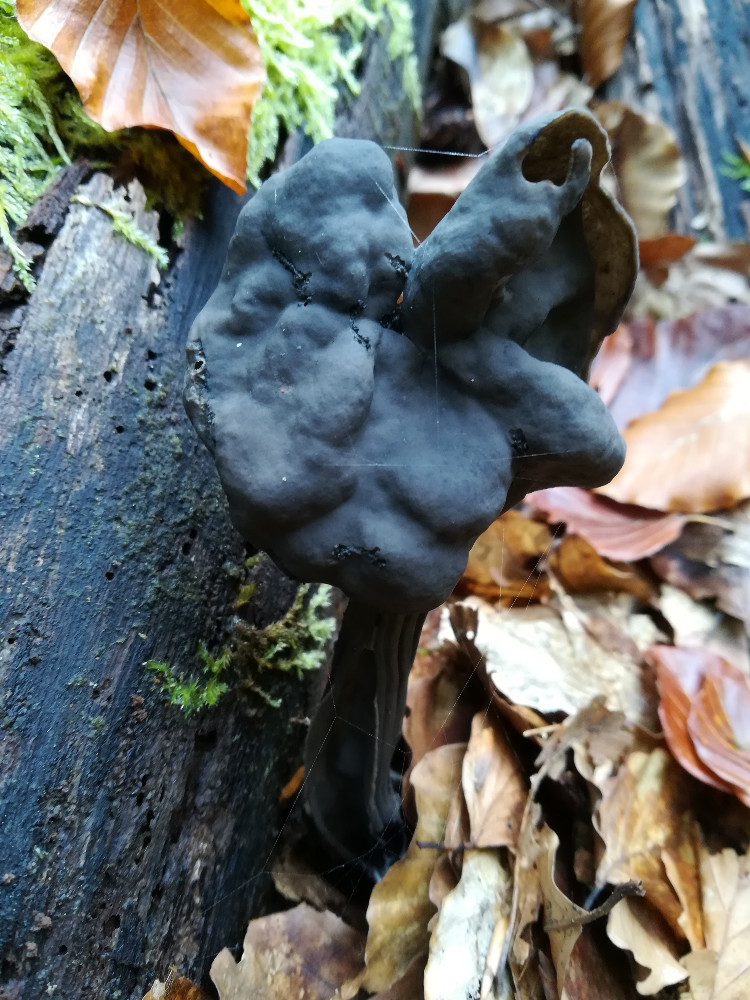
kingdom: Fungi
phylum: Ascomycota
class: Pezizomycetes
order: Pezizales
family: Helvellaceae
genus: Helvella
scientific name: Helvella lacunosa
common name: grubet foldhat
